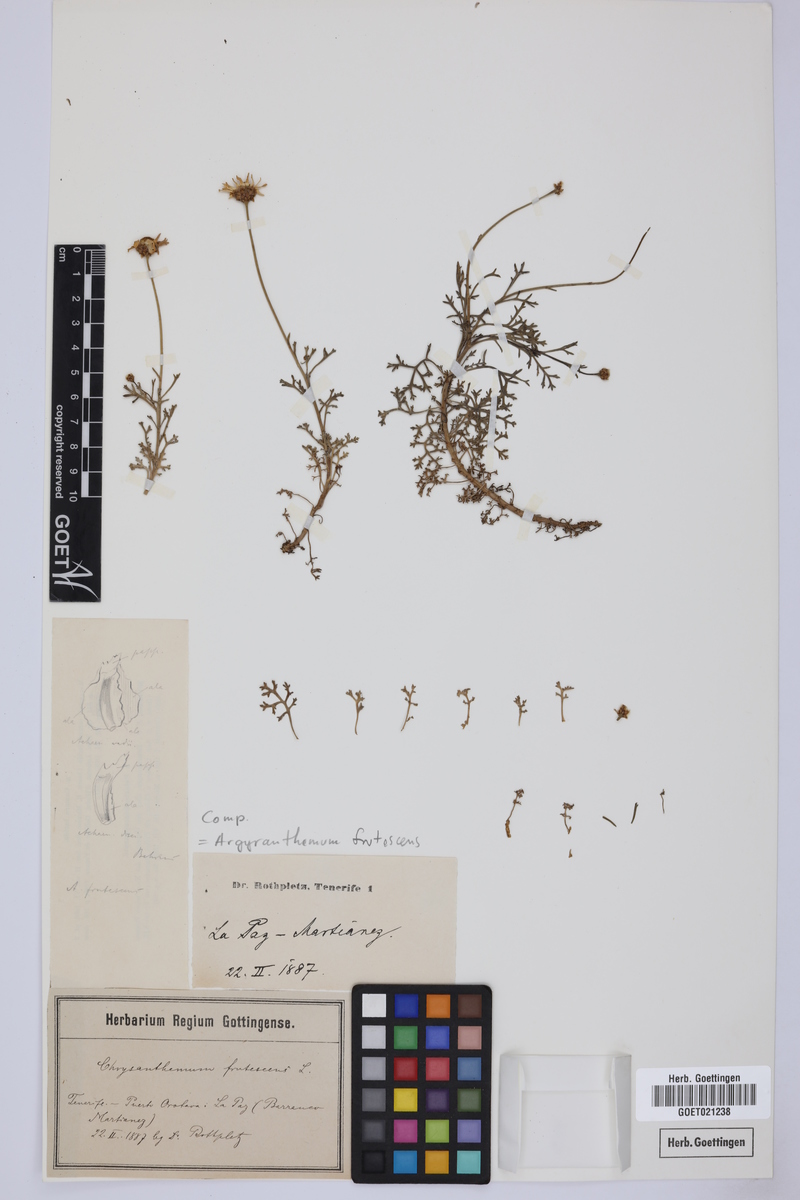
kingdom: Plantae
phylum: Tracheophyta
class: Magnoliopsida
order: Asterales
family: Asteraceae
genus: Argyranthemum
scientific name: Argyranthemum frutescens
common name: Paris daisy
